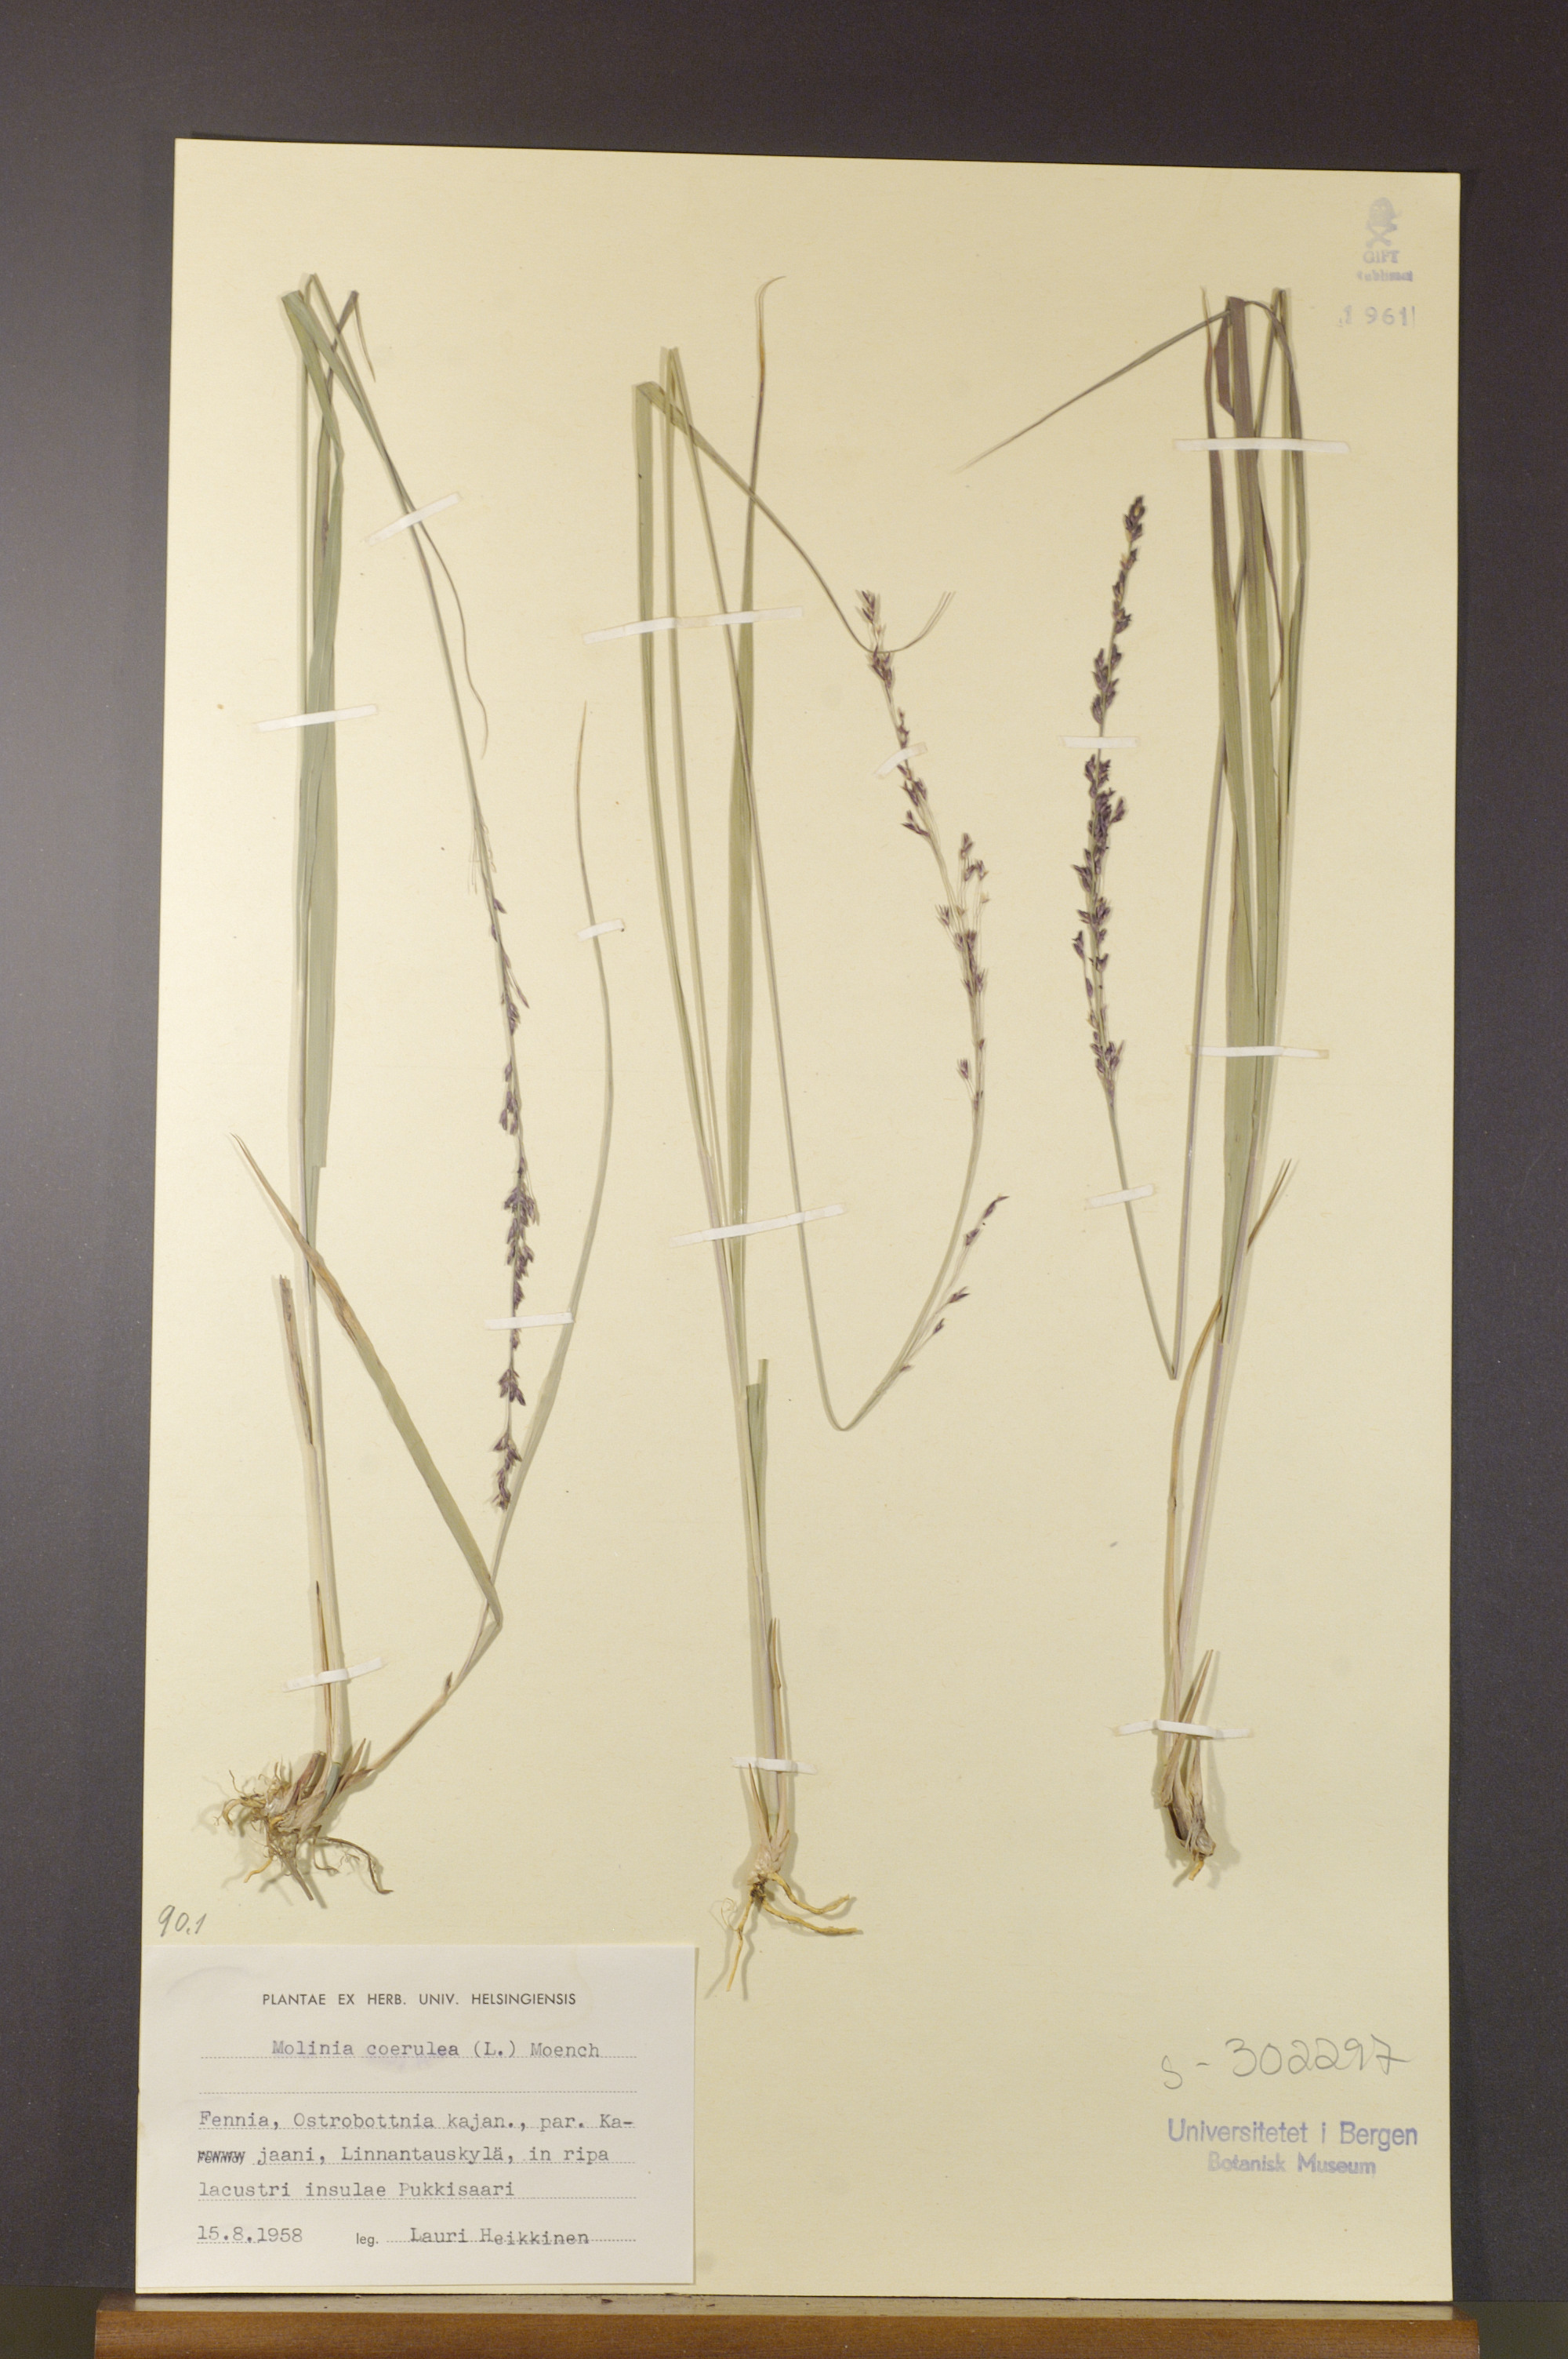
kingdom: Plantae
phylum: Tracheophyta
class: Liliopsida
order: Poales
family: Poaceae
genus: Molinia
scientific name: Molinia caerulea
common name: Purple moor-grass
